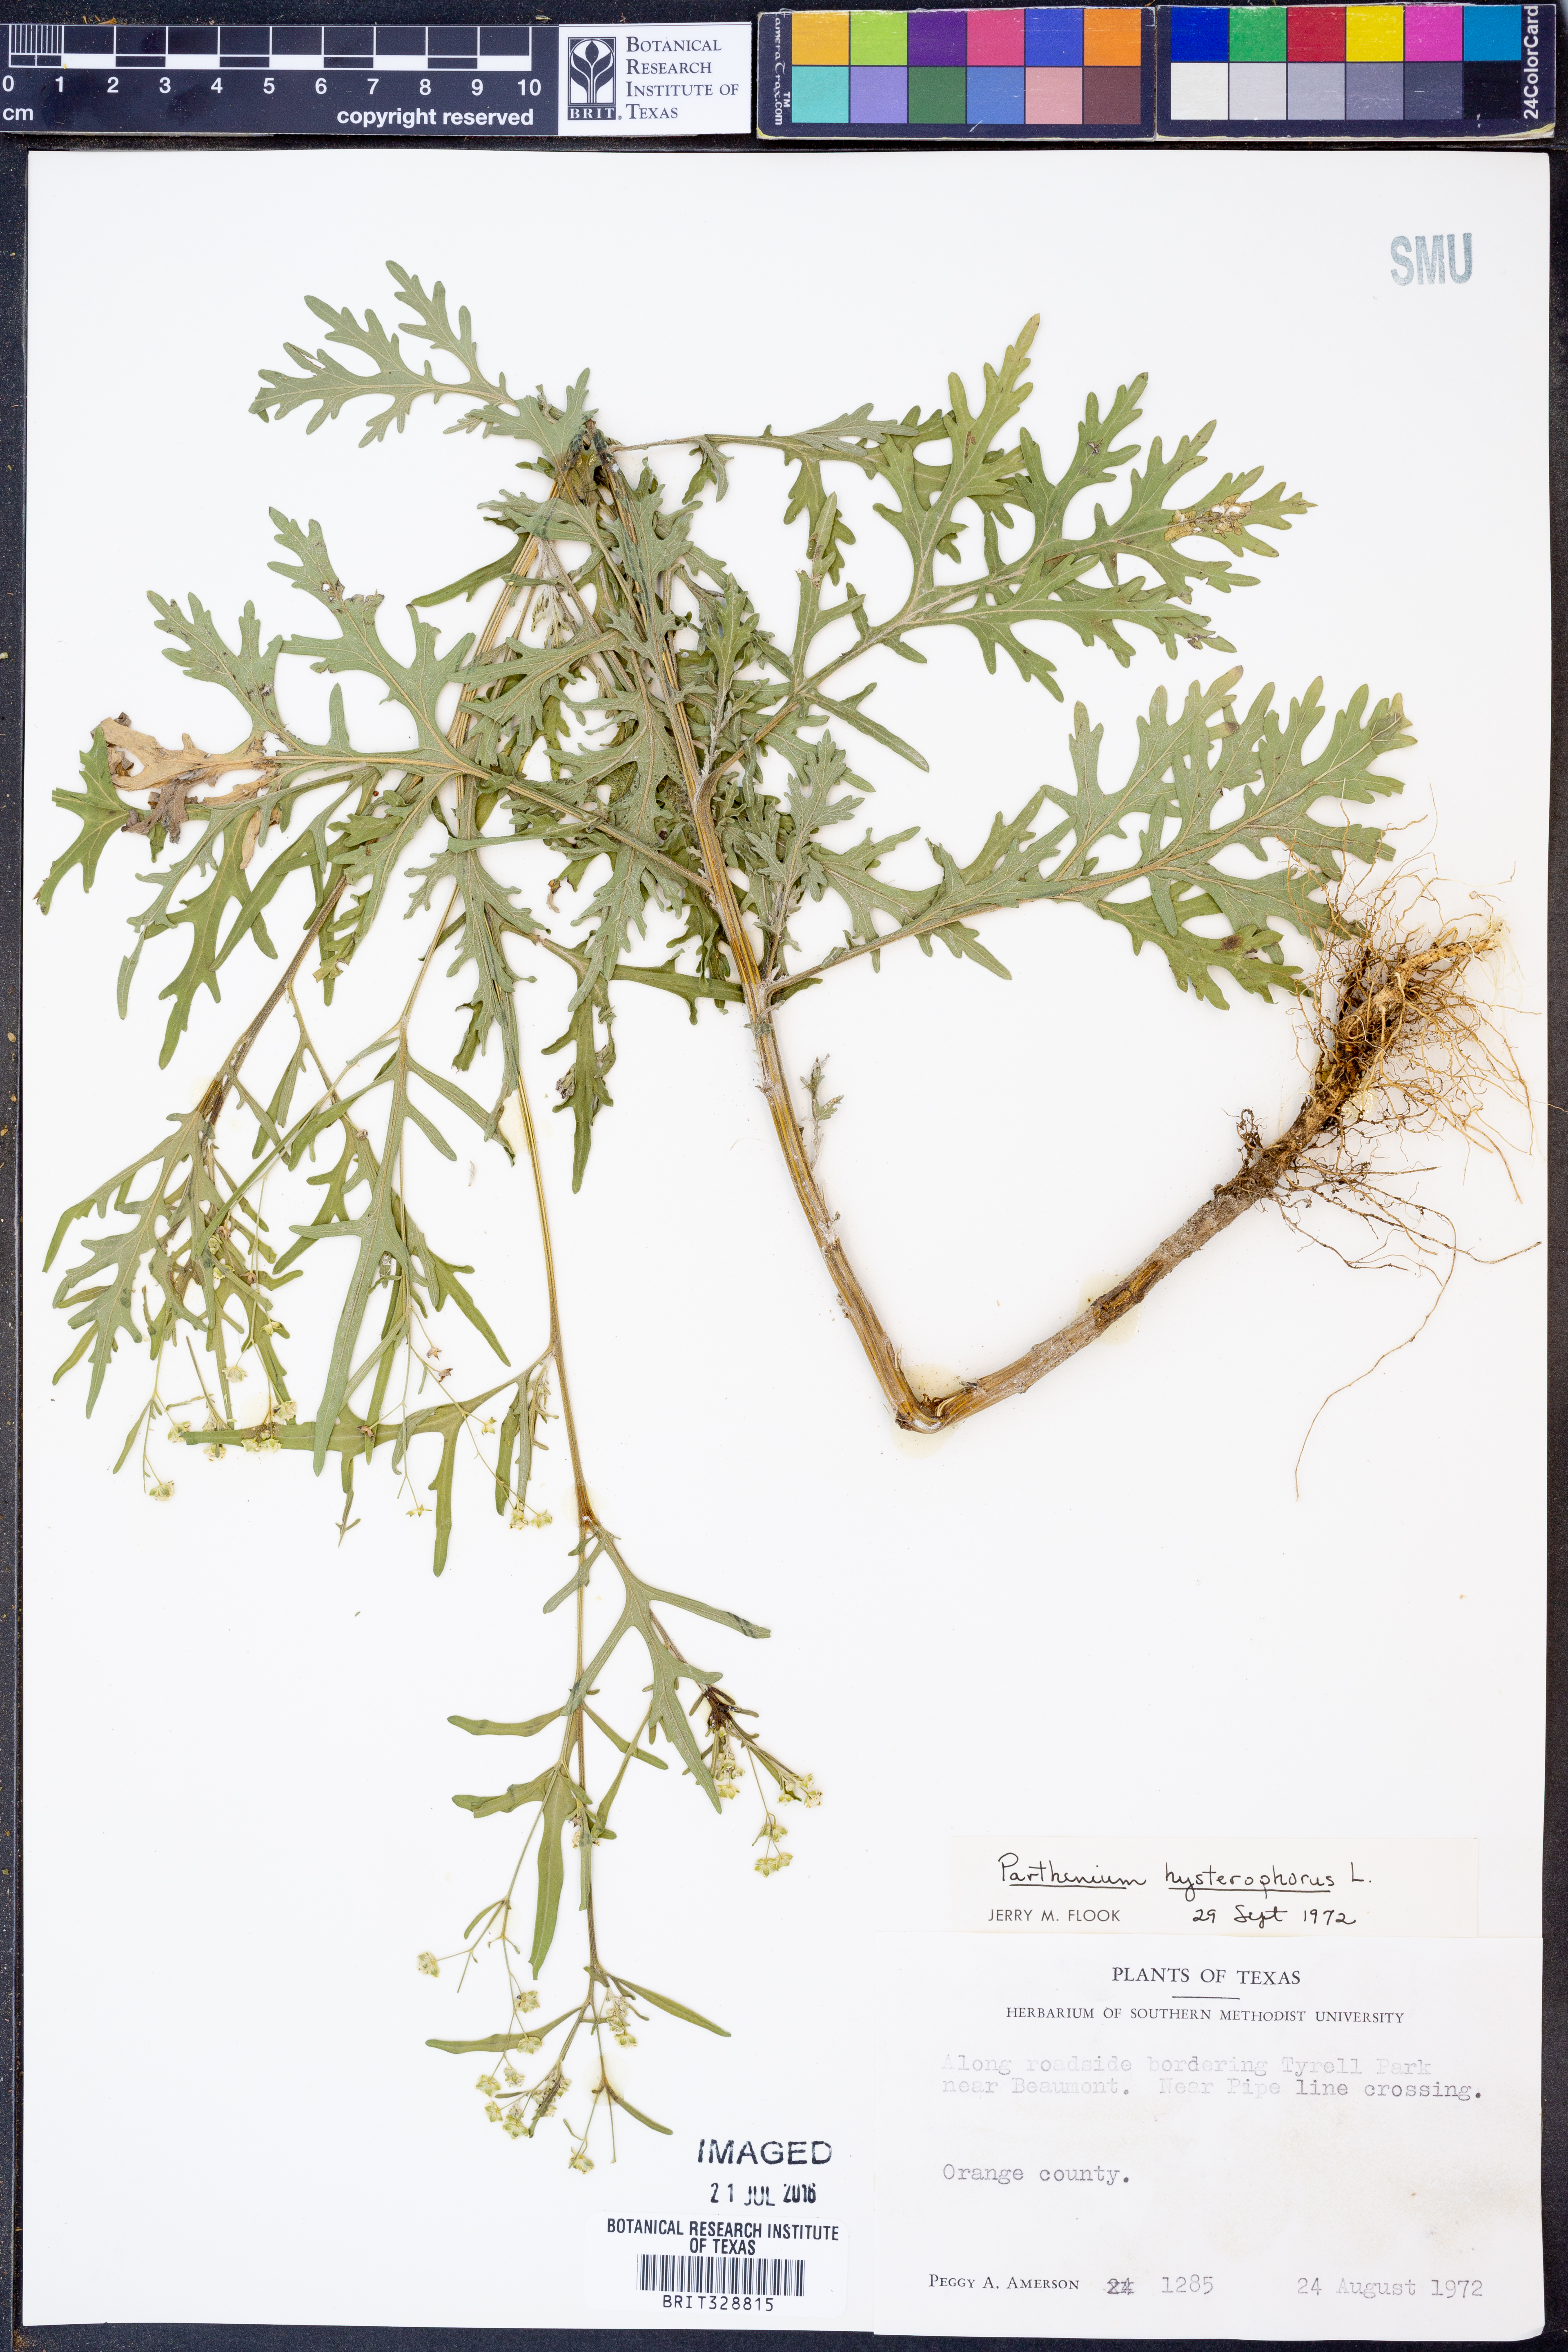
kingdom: Plantae
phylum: Tracheophyta
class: Magnoliopsida
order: Asterales
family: Asteraceae
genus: Parthenium
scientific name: Parthenium hysterophorus
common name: Santa maria feverfew
